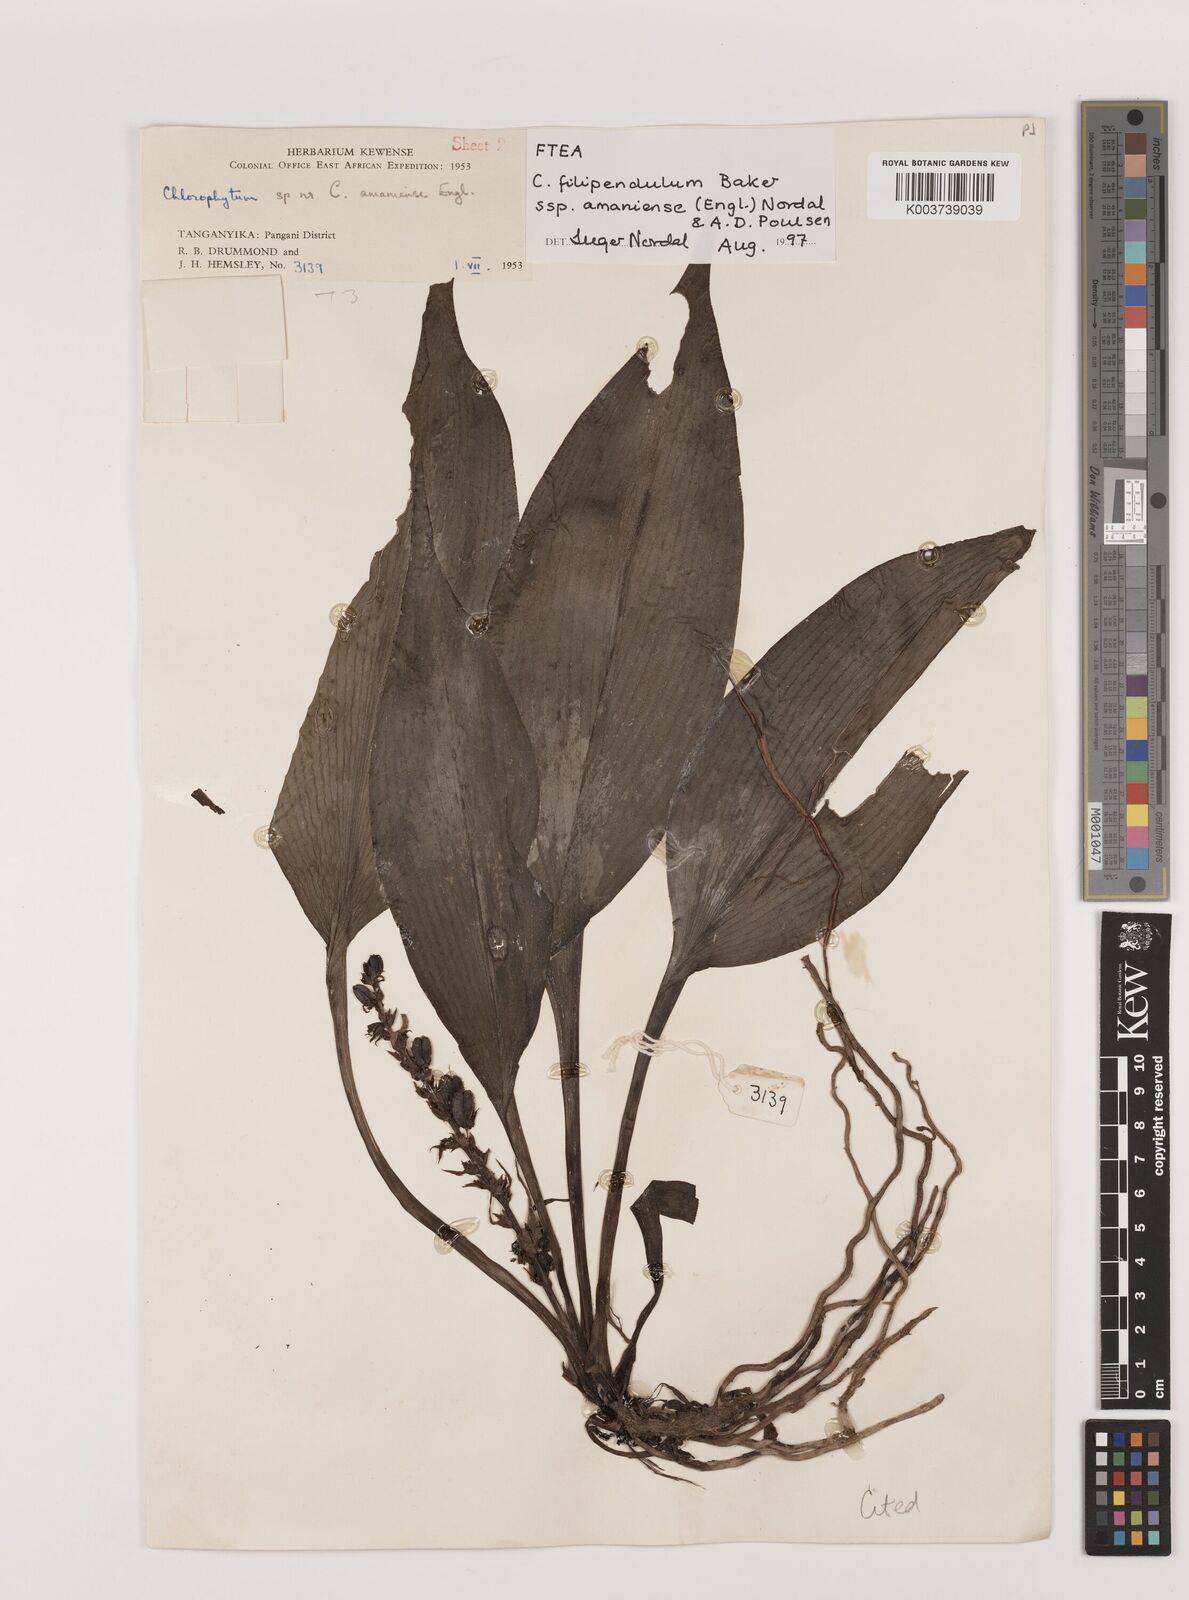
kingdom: Plantae
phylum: Tracheophyta
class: Liliopsida
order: Asparagales
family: Asparagaceae
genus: Chlorophytum
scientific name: Chlorophytum filipendulum
